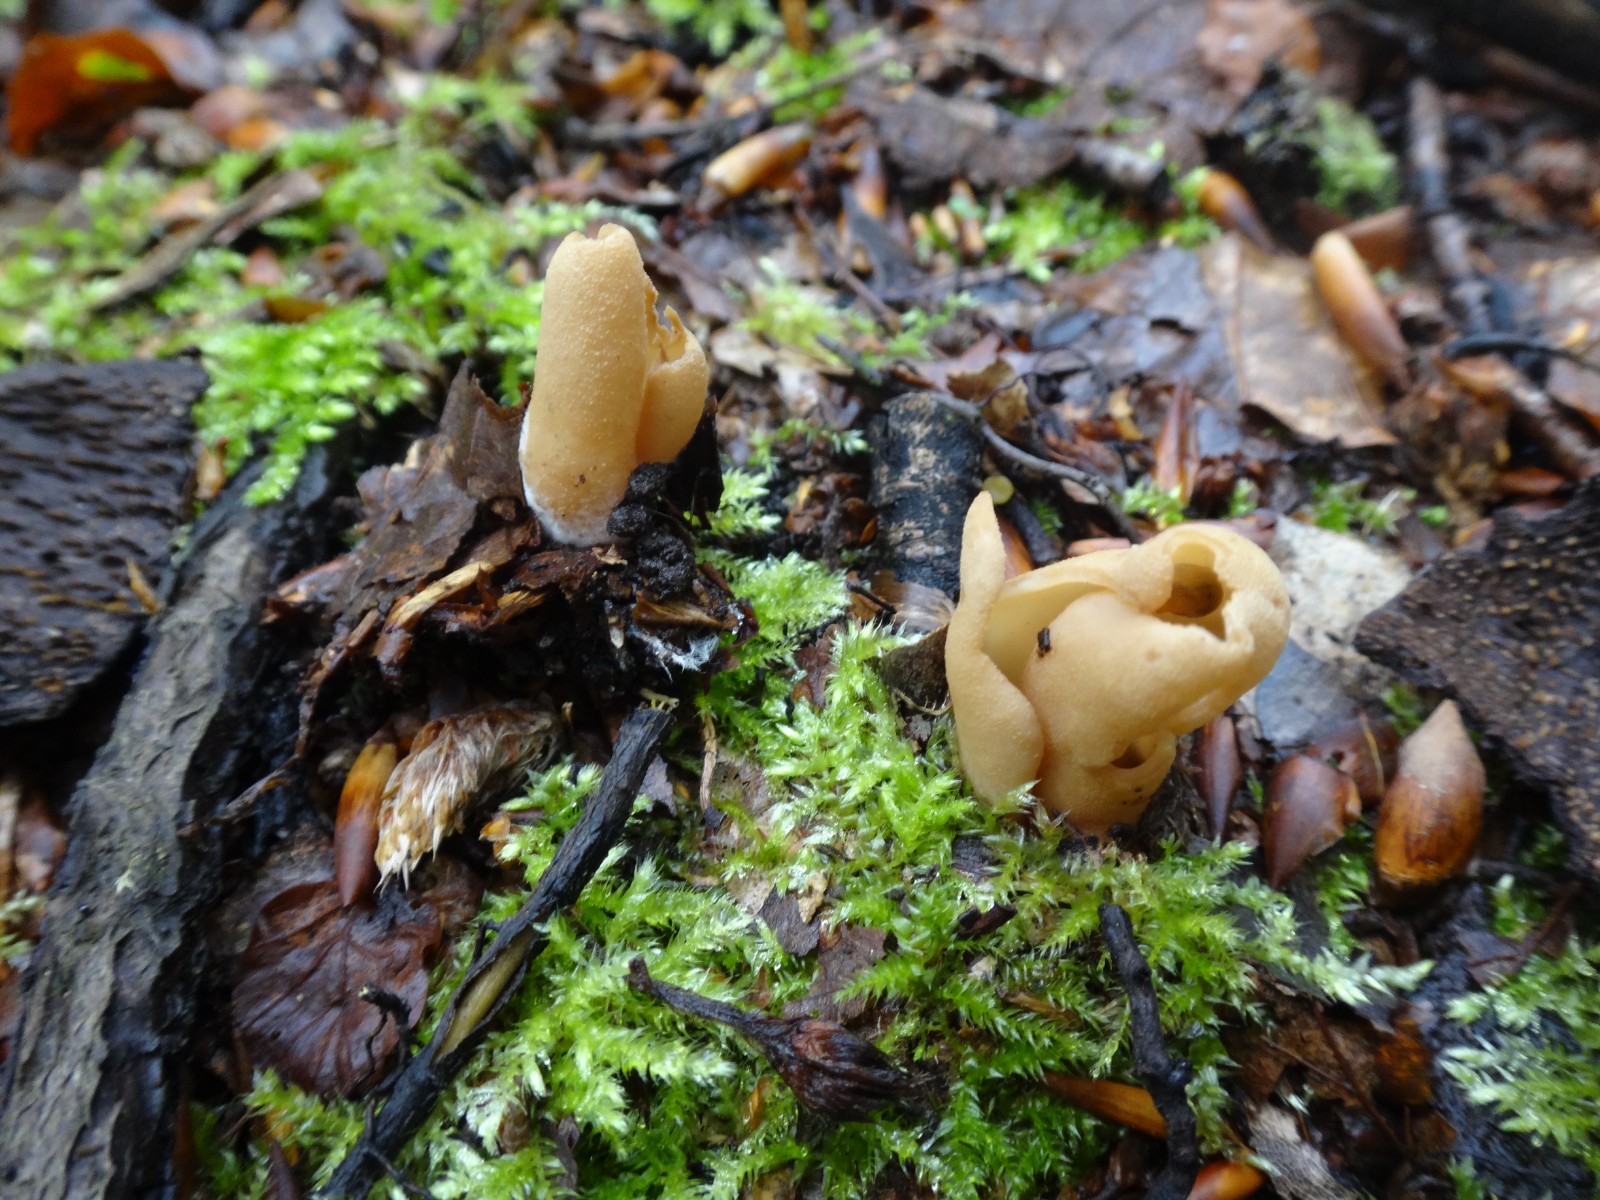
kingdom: Fungi
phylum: Ascomycota
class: Pezizomycetes
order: Pezizales
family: Otideaceae
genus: Otidea
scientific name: Otidea alutacea
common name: læder-ørebæger
